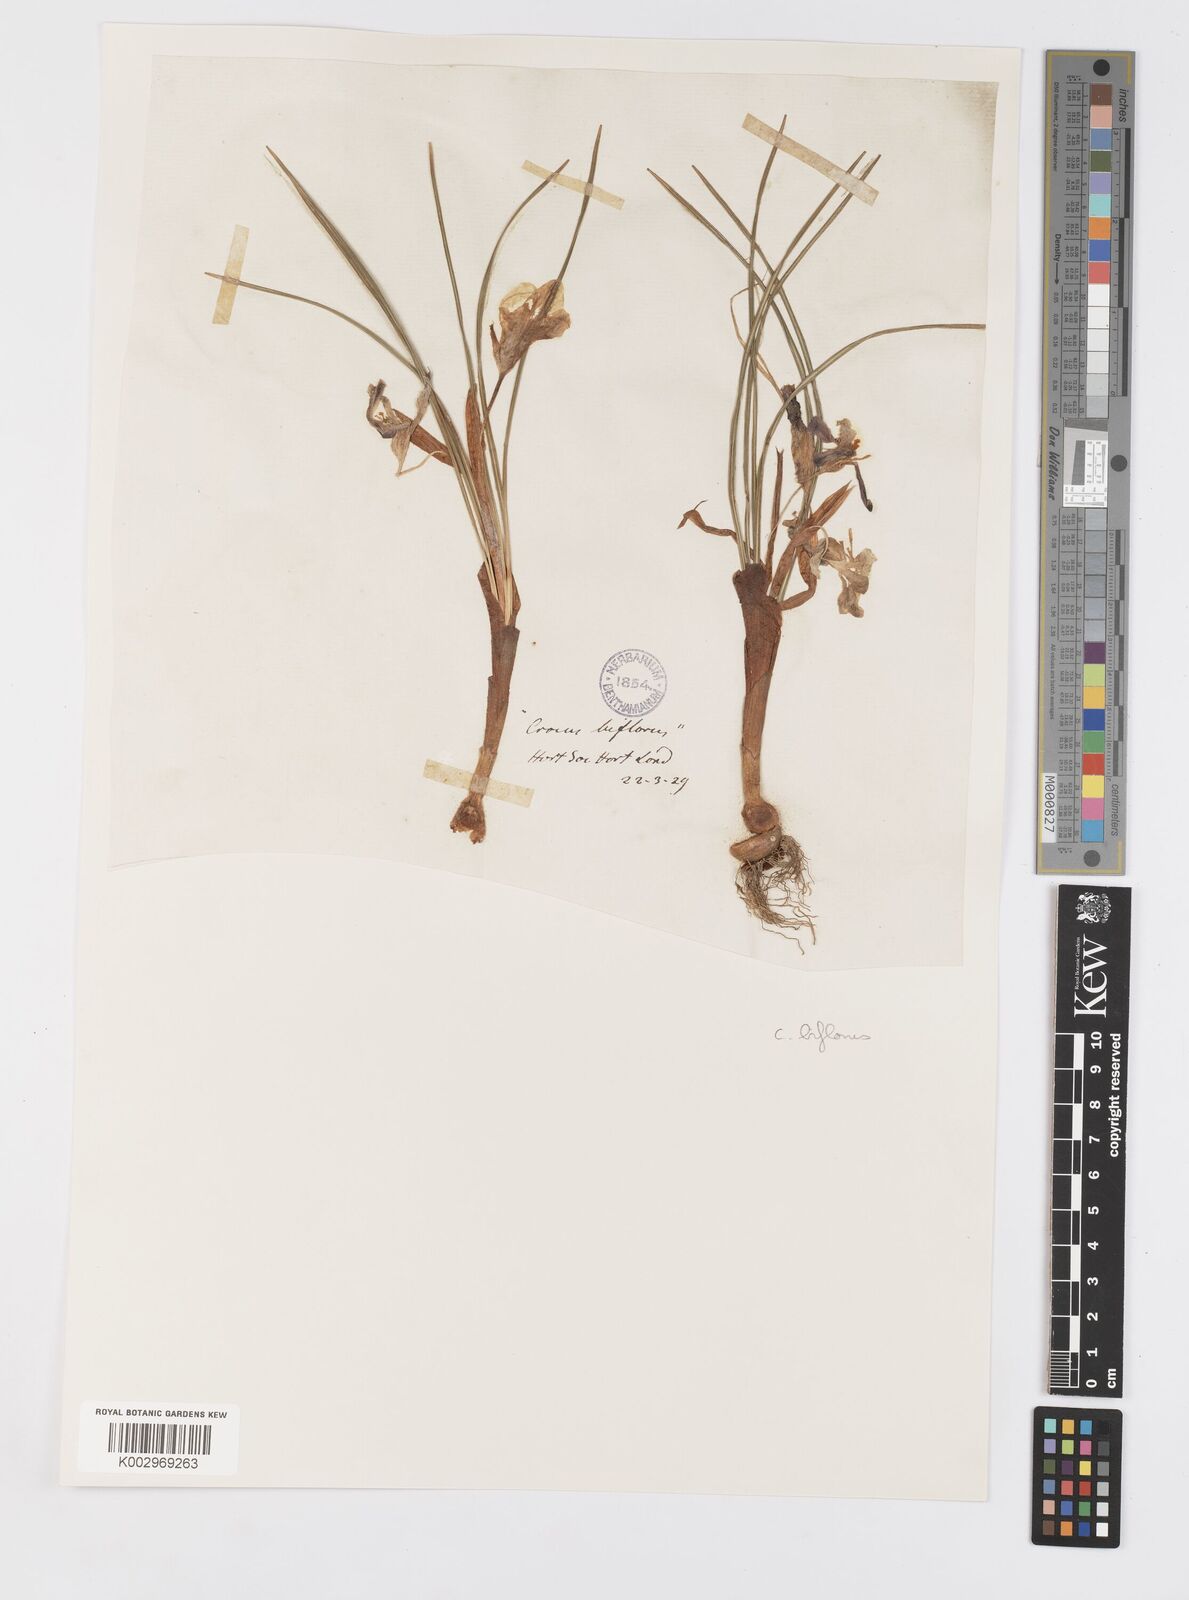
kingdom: Plantae
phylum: Tracheophyta
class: Liliopsida
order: Asparagales
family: Iridaceae
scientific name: Iridaceae
